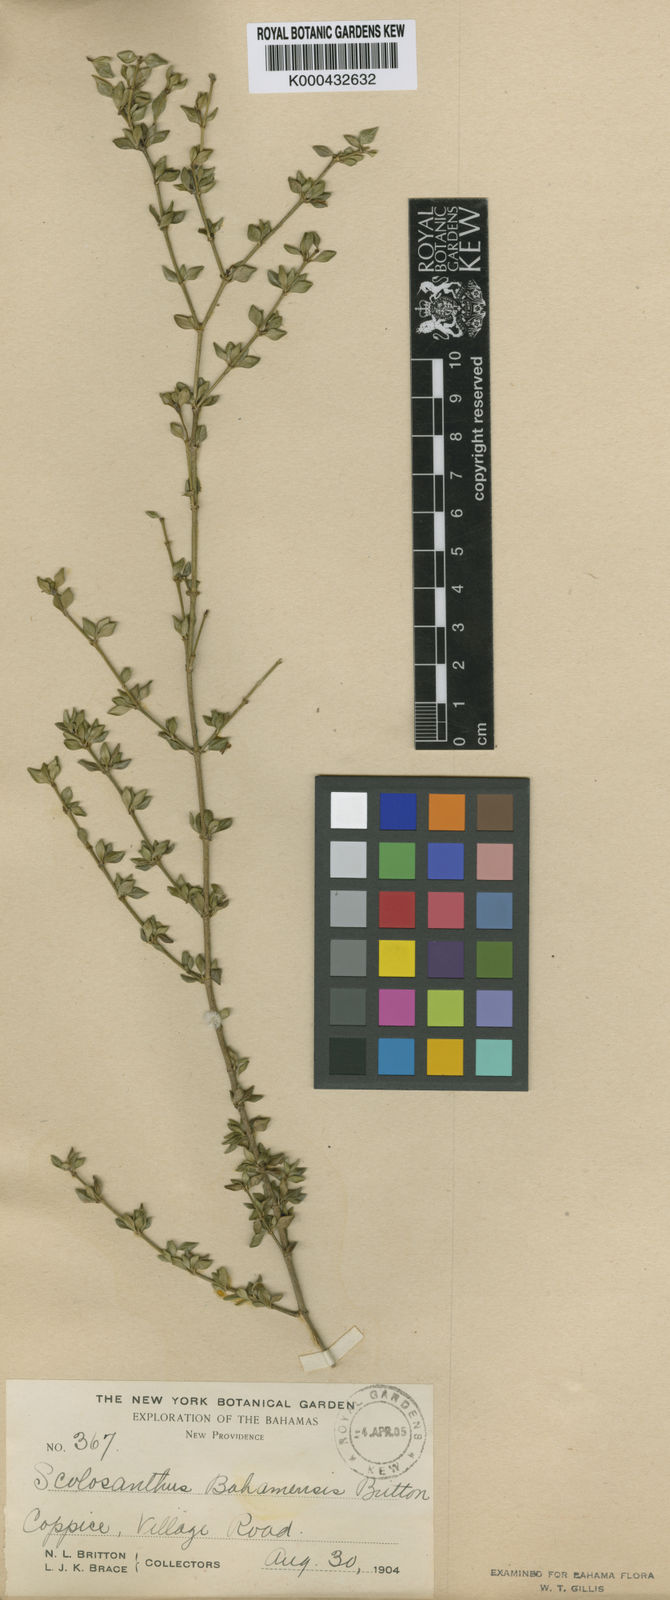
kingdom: Plantae
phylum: Tracheophyta
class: Magnoliopsida
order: Gentianales
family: Rubiaceae
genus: Scolosanthus
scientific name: Scolosanthus bahamensis
